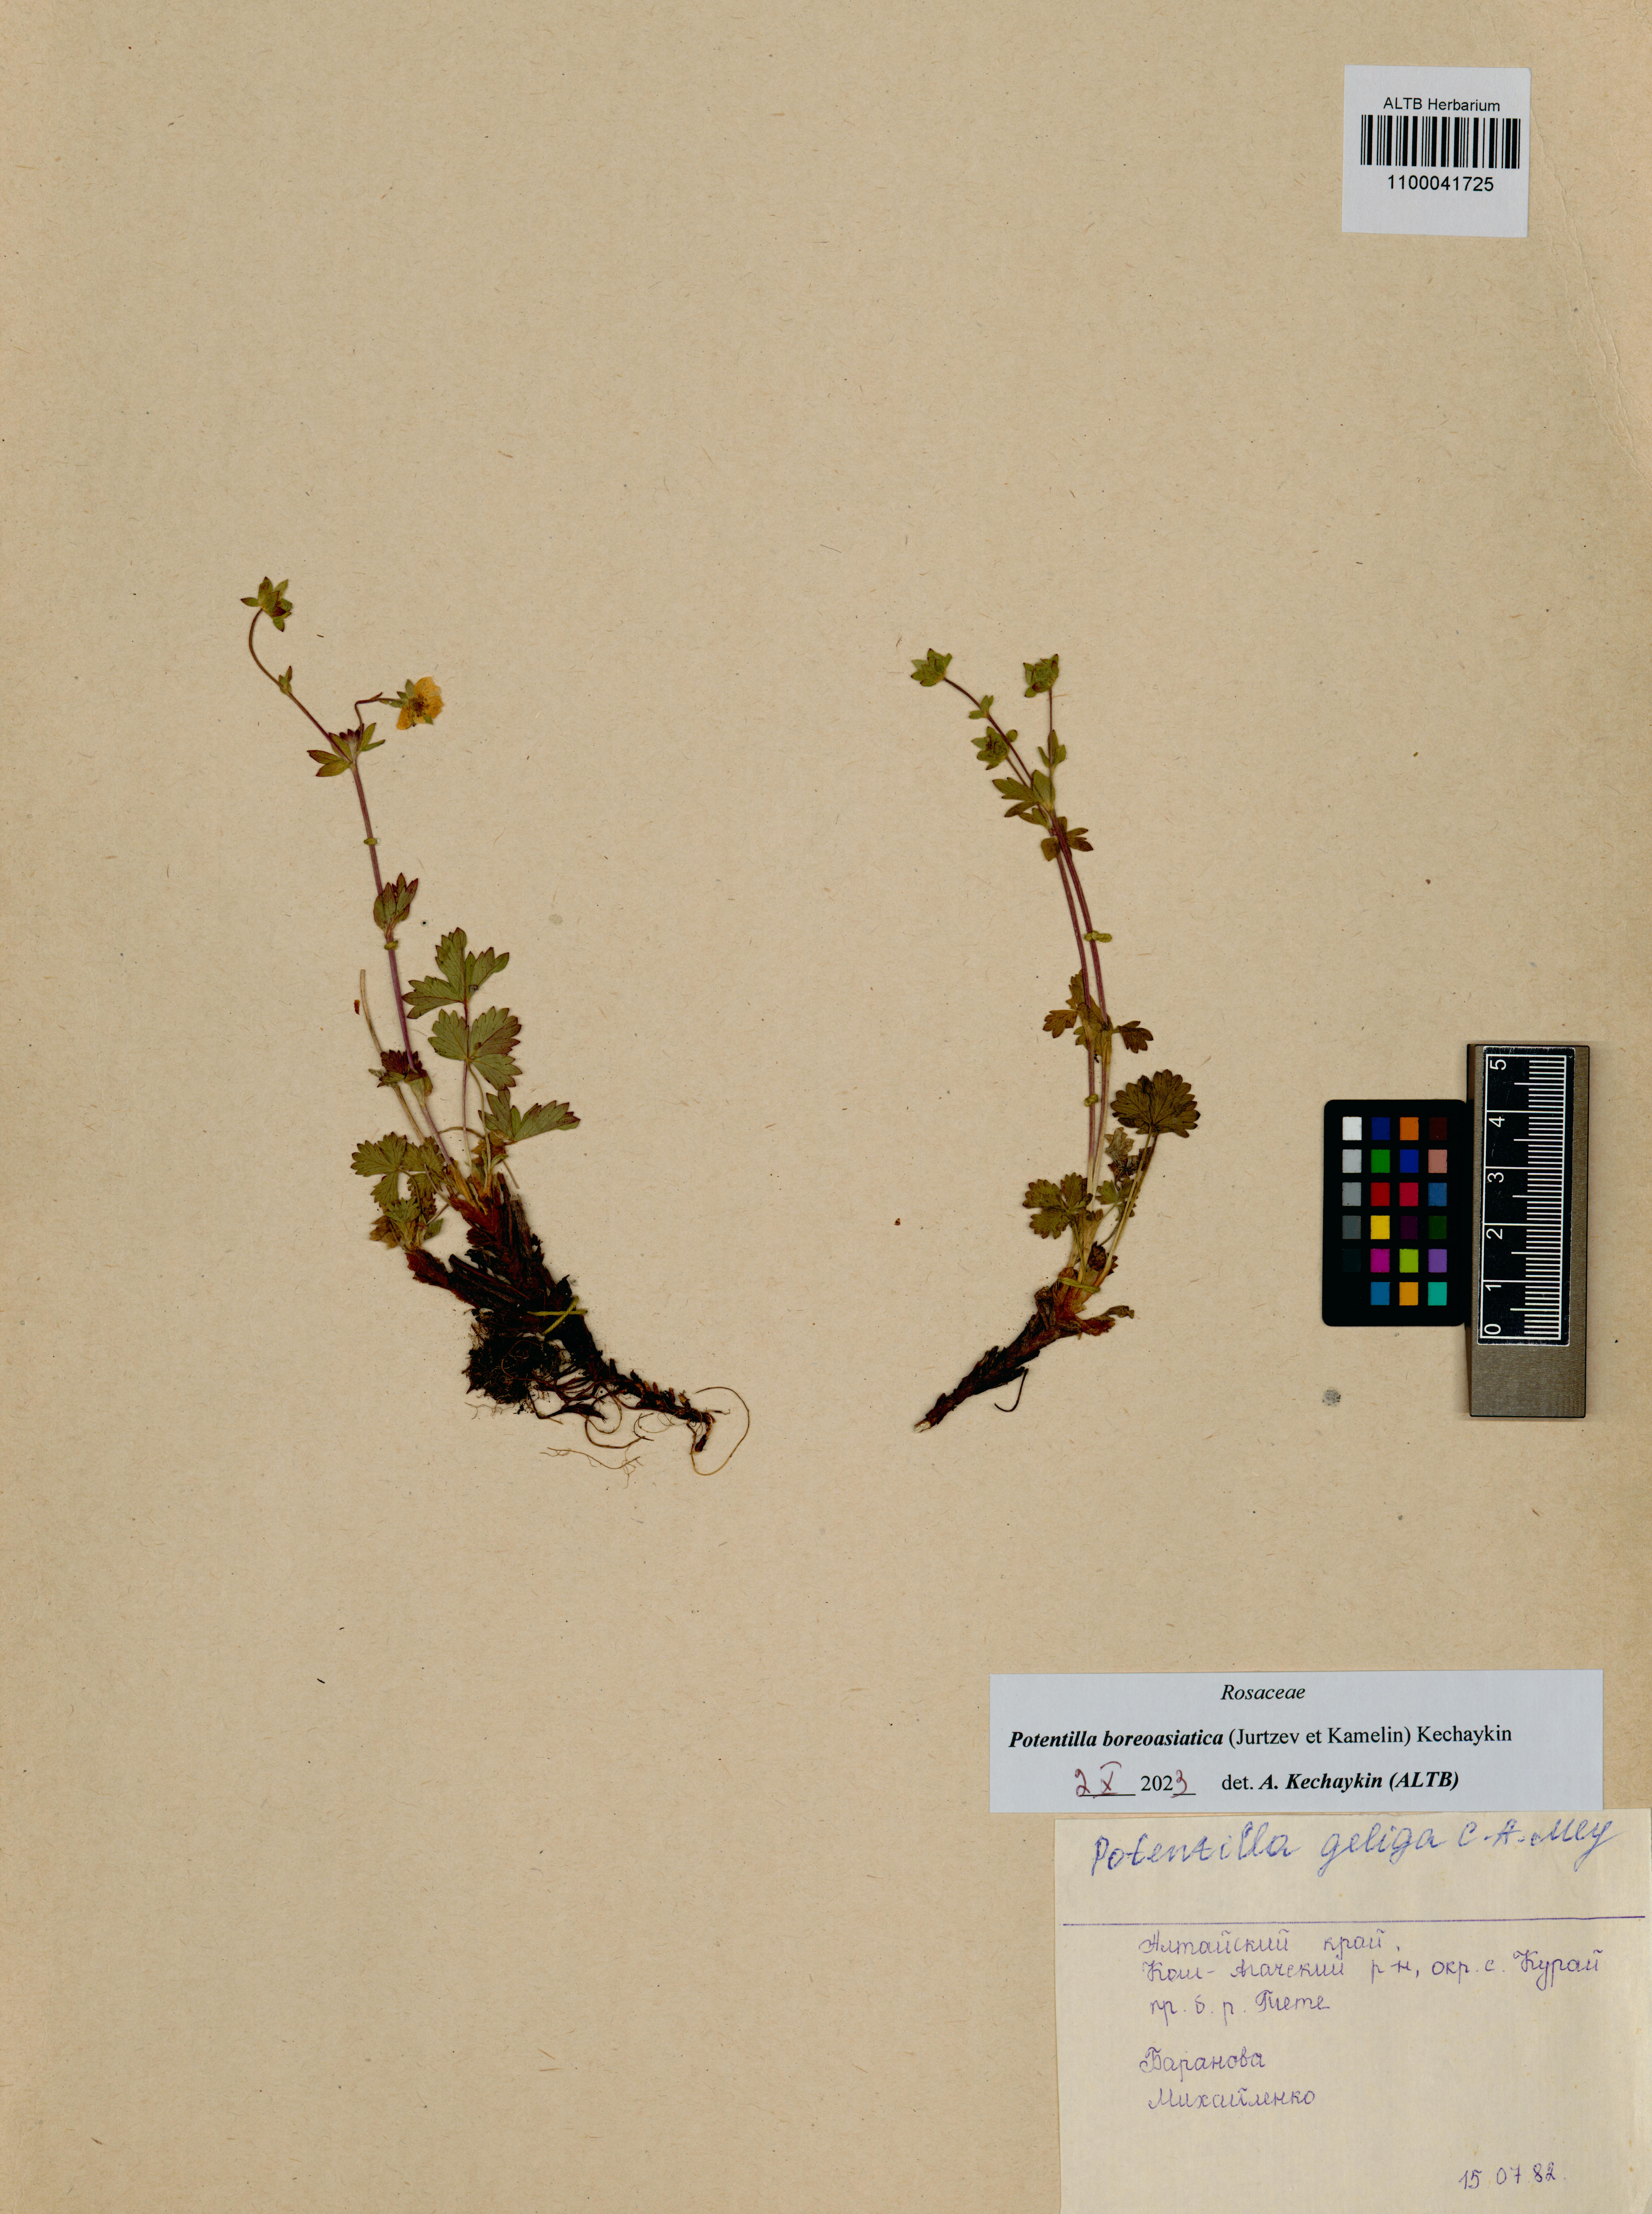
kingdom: Plantae
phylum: Tracheophyta
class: Magnoliopsida
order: Rosales
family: Rosaceae
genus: Potentilla
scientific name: Potentilla
